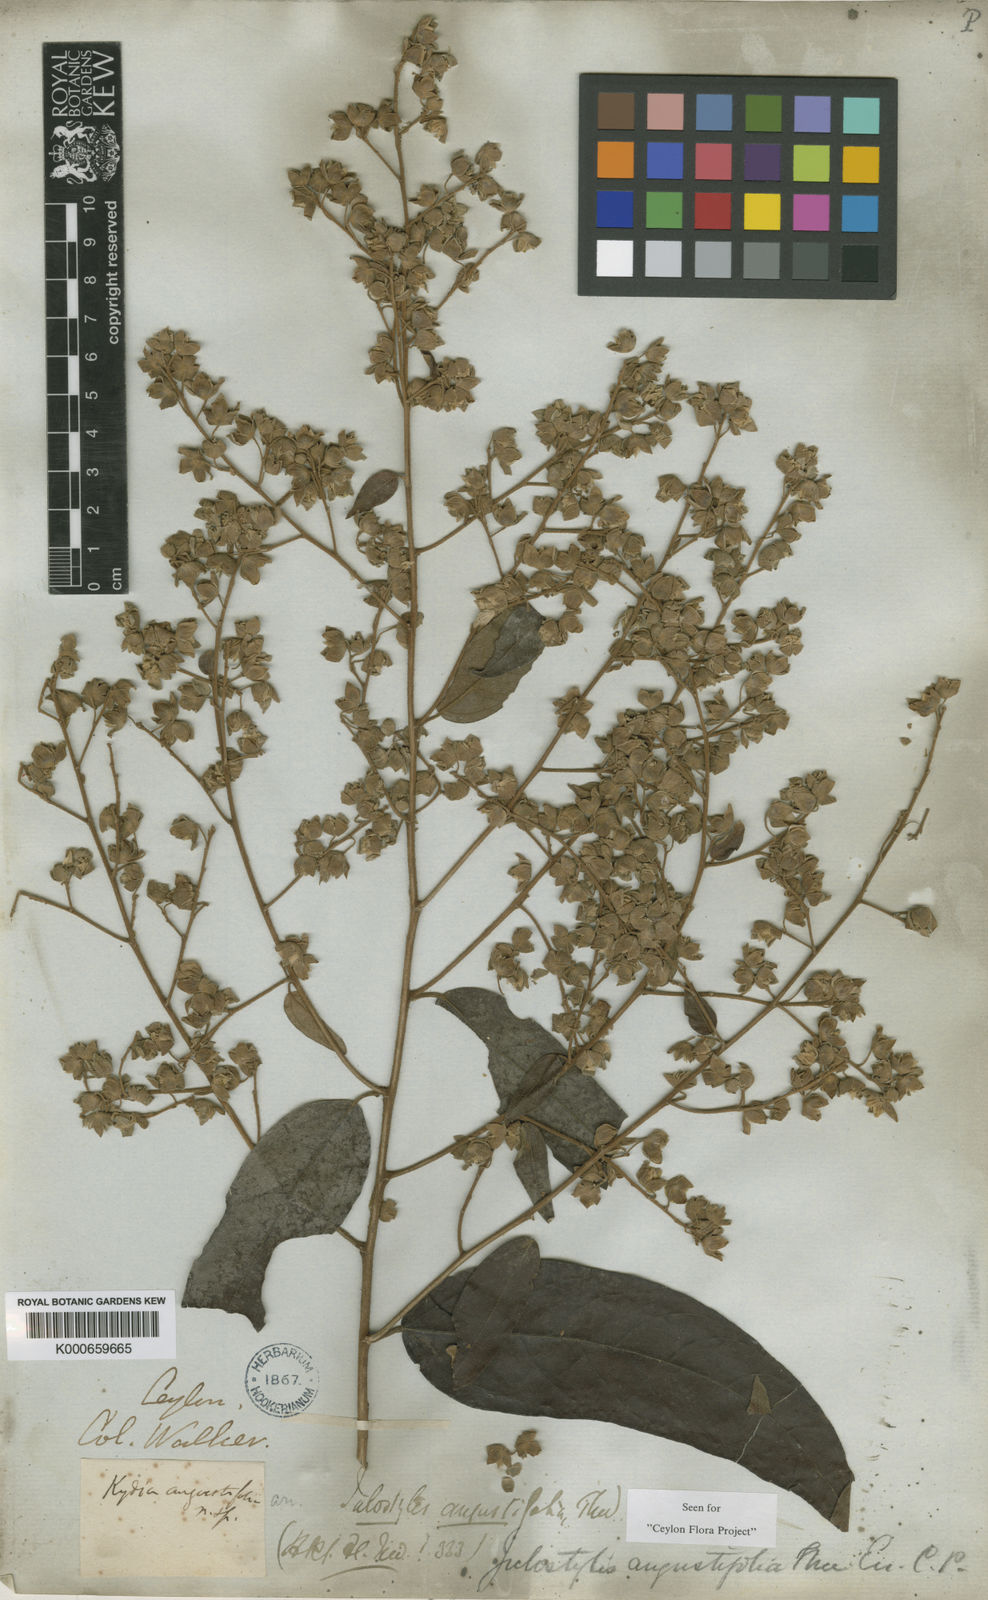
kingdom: Plantae
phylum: Tracheophyta
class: Magnoliopsida
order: Malvales
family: Malvaceae
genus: Julostylis
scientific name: Julostylis angustifolia
